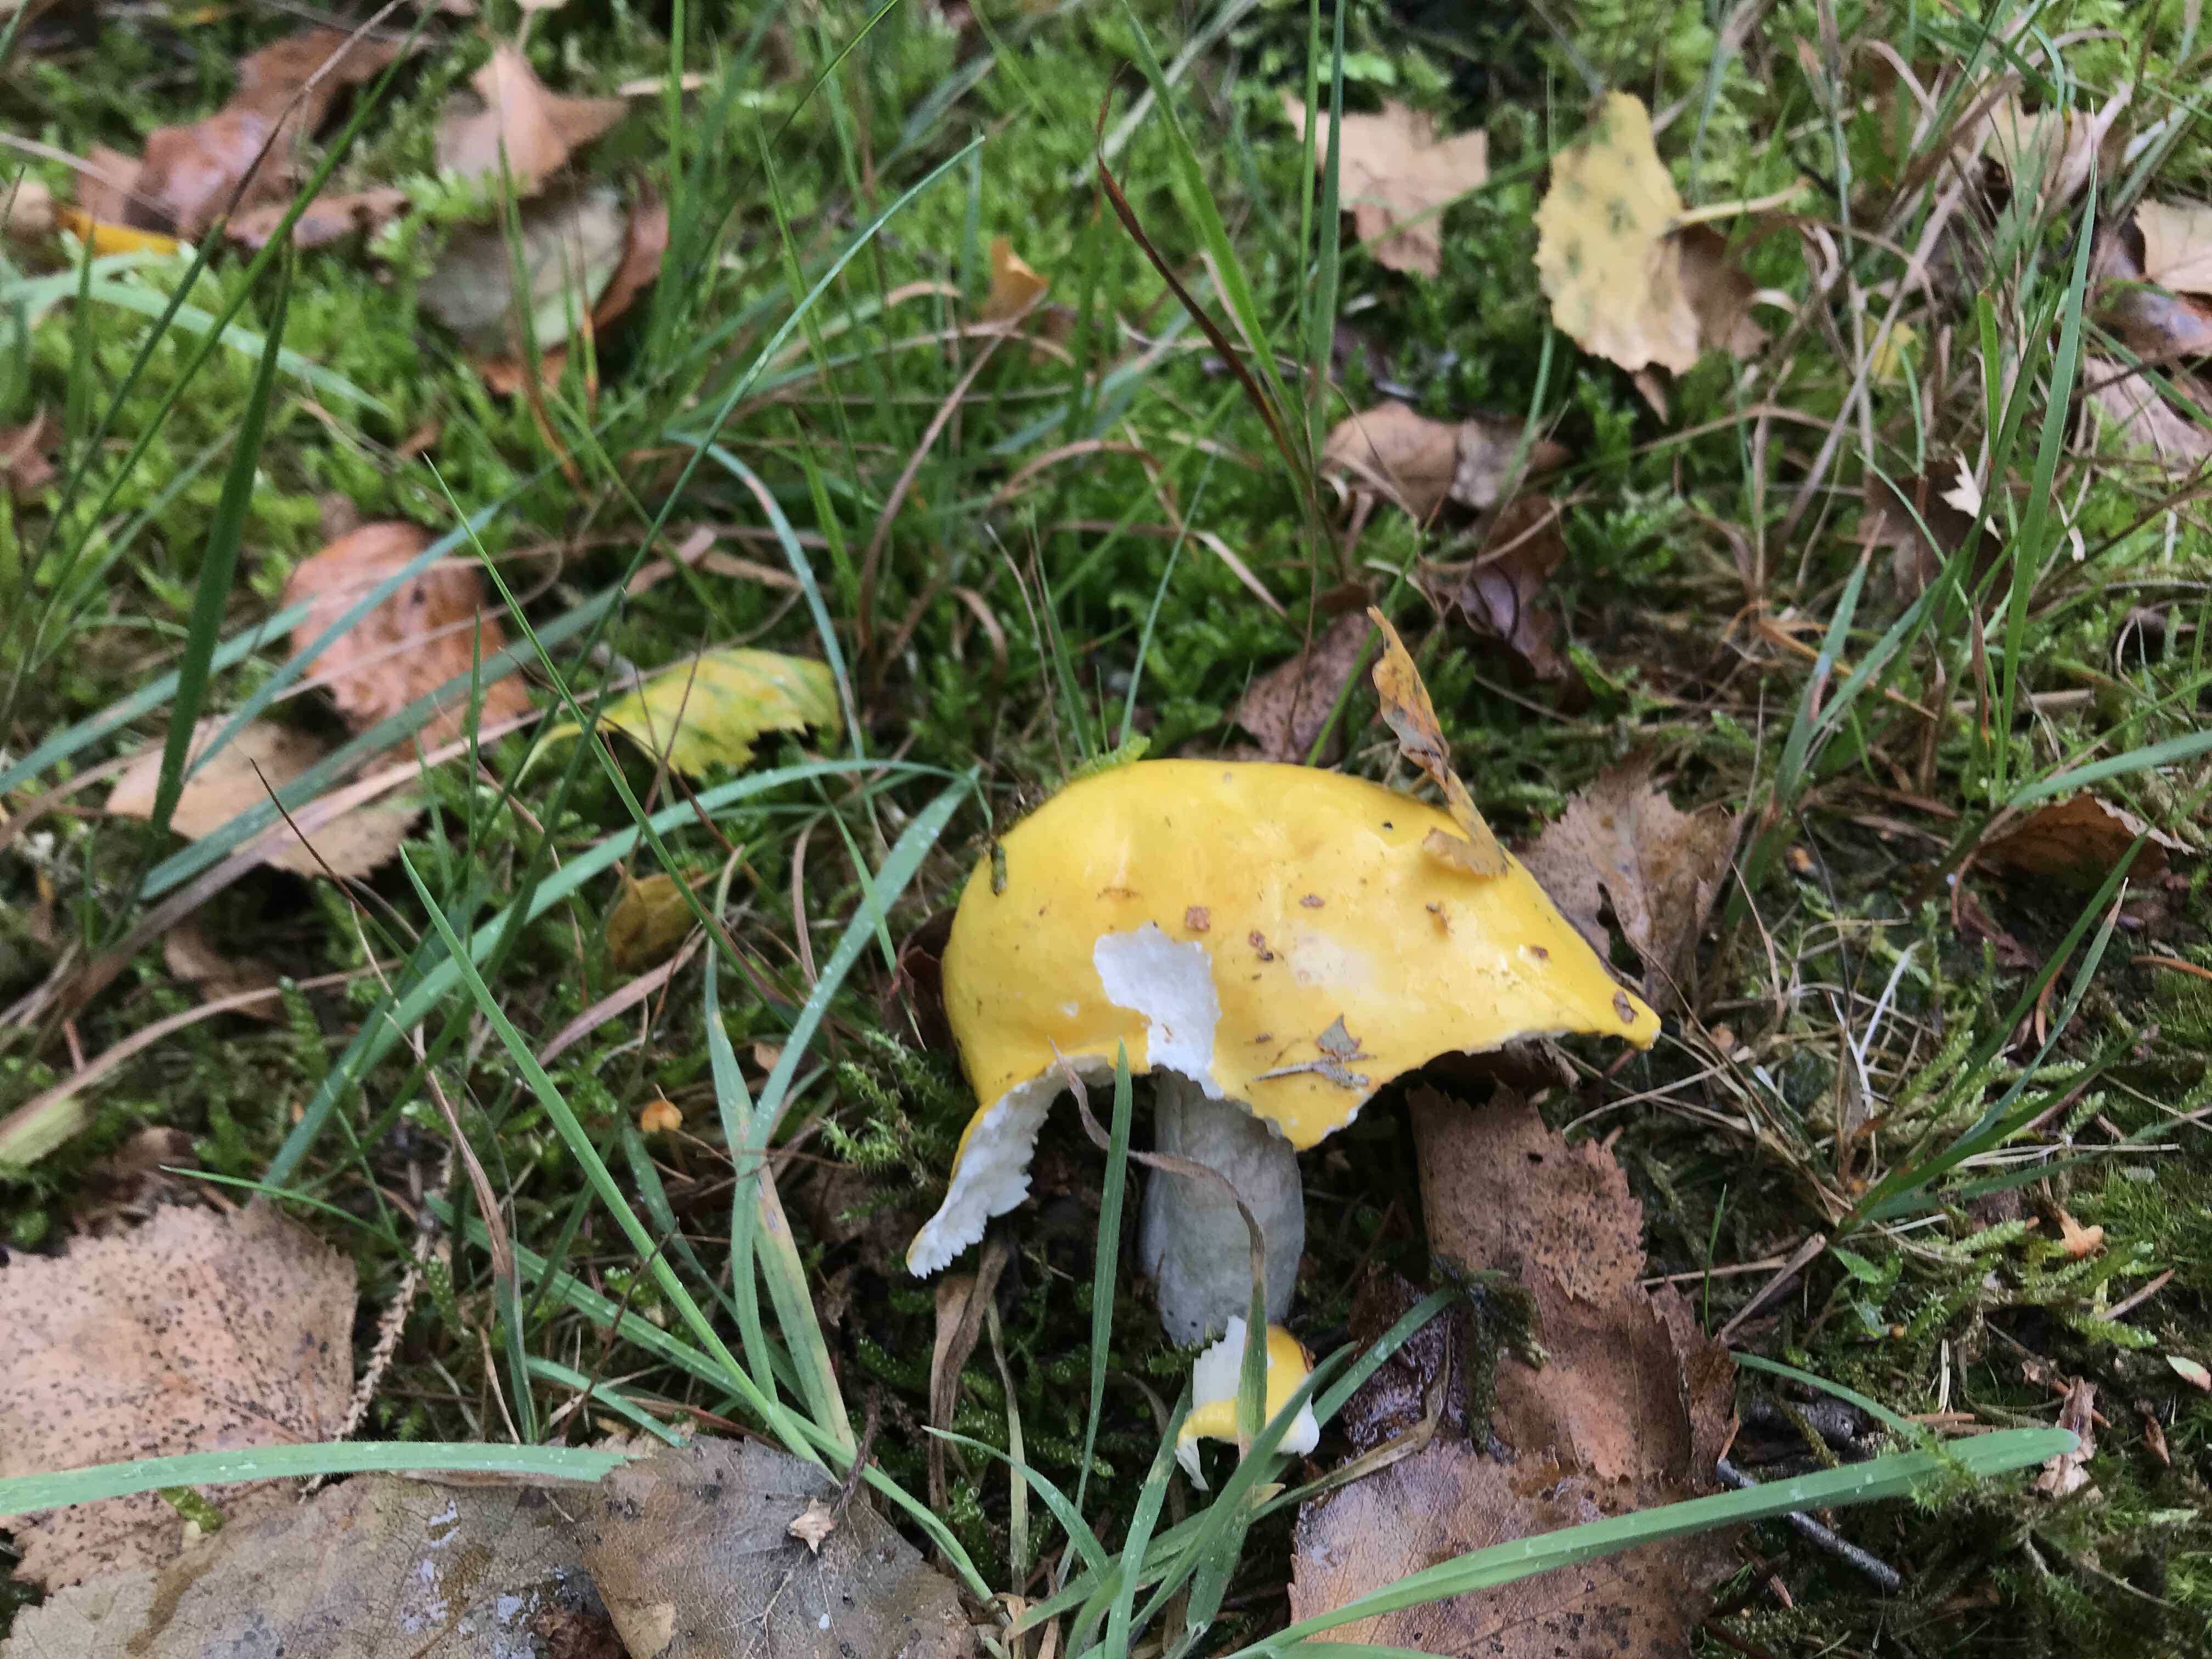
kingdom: Fungi
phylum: Basidiomycota
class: Agaricomycetes
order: Russulales
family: Russulaceae
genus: Russula
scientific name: Russula claroflava
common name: birke-skørhat
